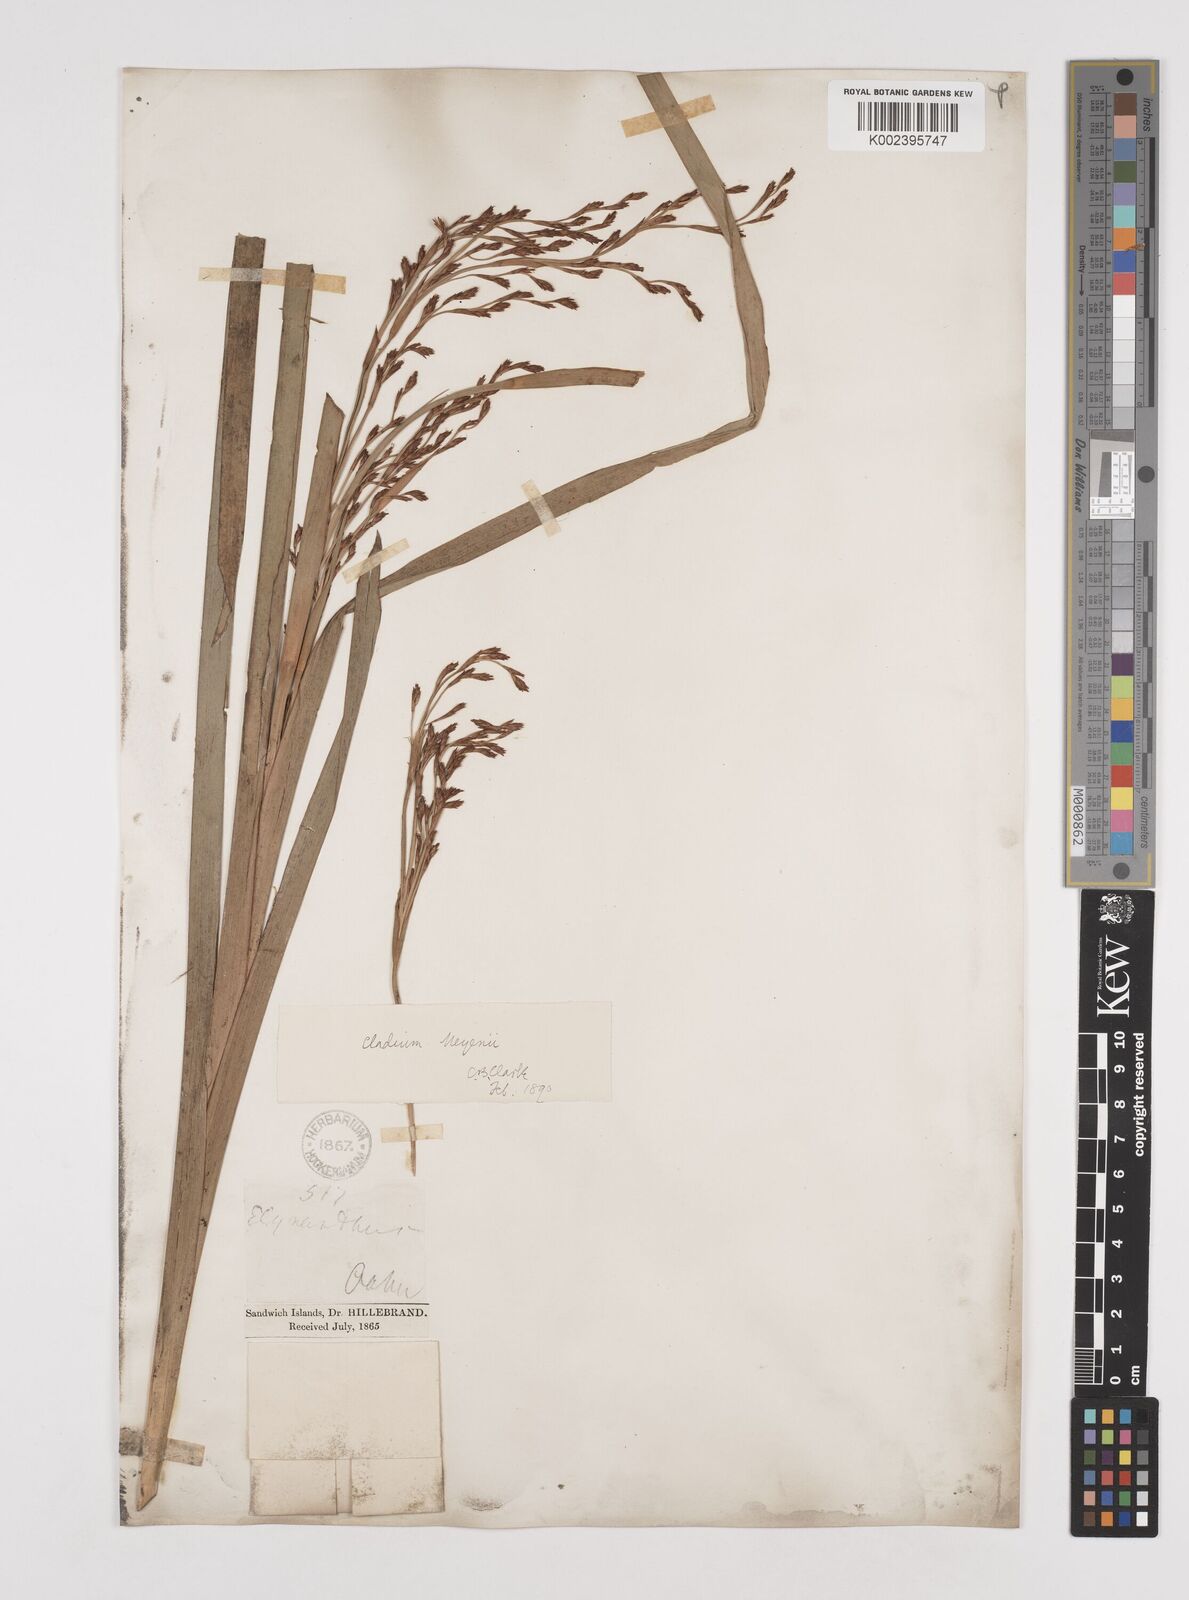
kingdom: Plantae
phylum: Tracheophyta
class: Liliopsida
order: Poales
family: Cyperaceae
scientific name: Cyperaceae
